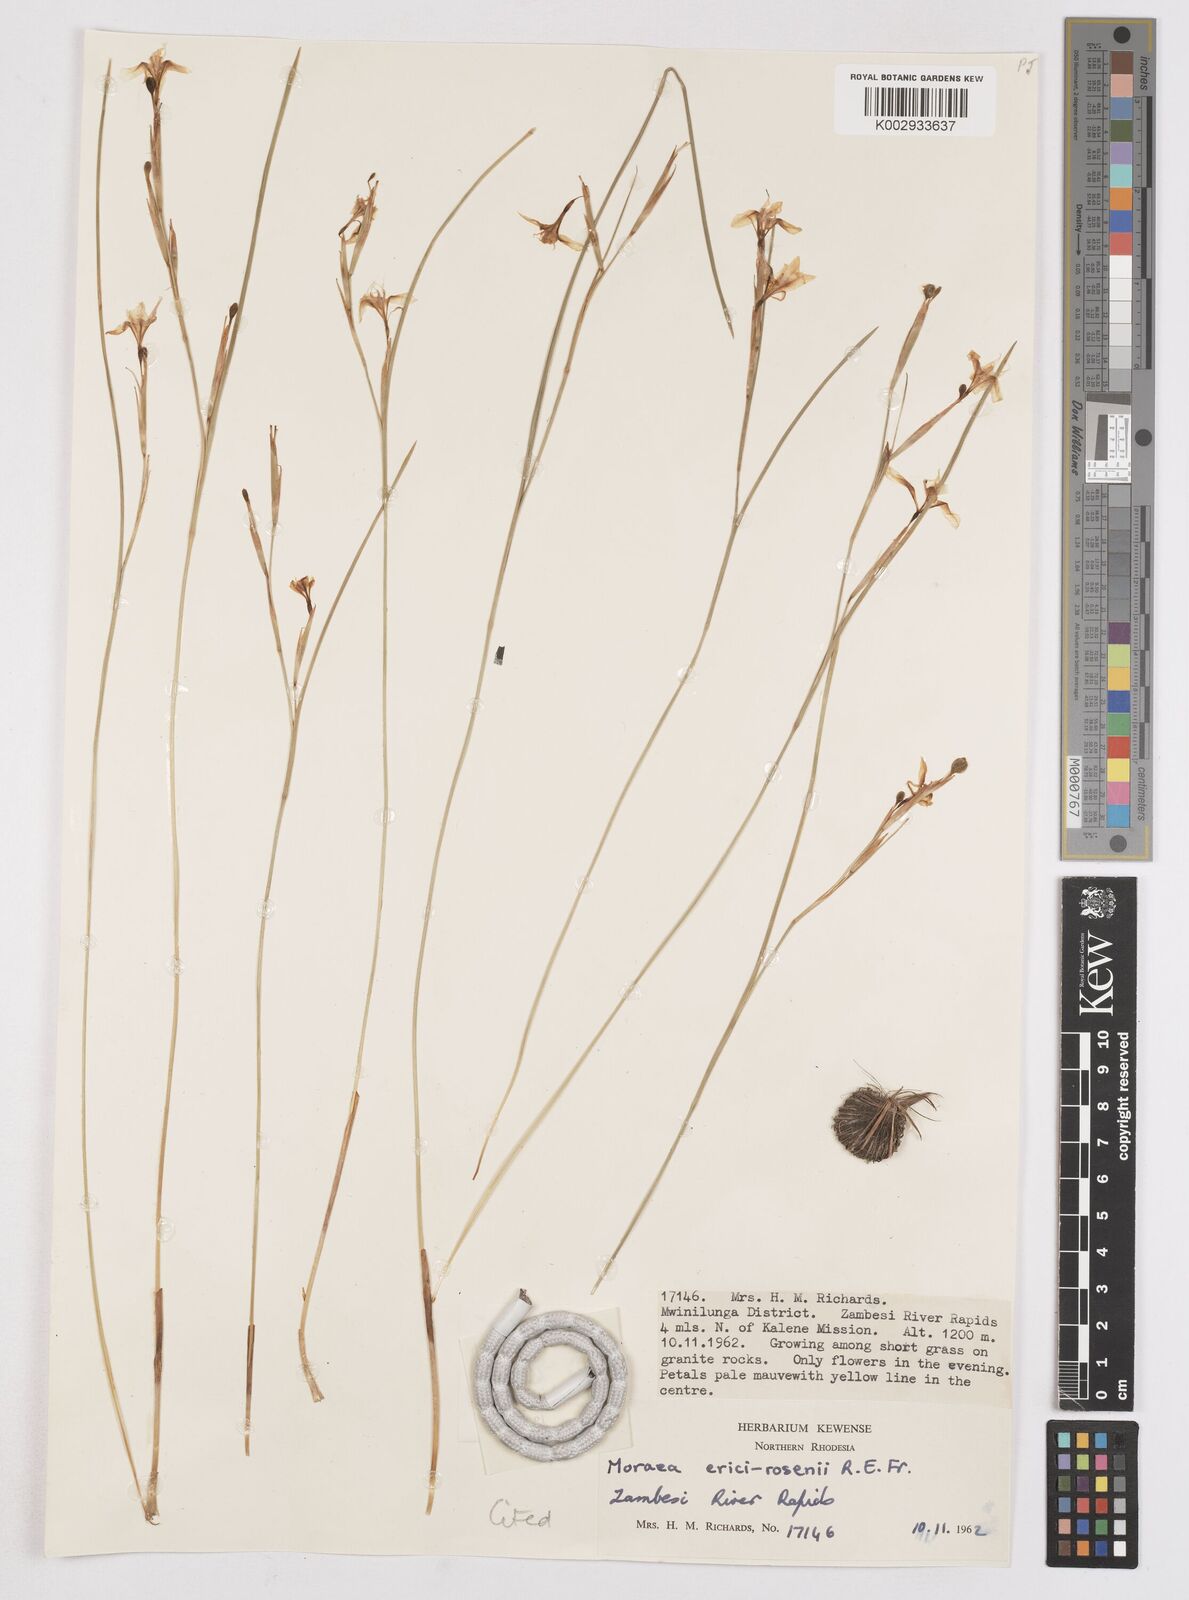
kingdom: Plantae
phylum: Tracheophyta
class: Liliopsida
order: Asparagales
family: Iridaceae
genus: Moraea
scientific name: Moraea natalensis
